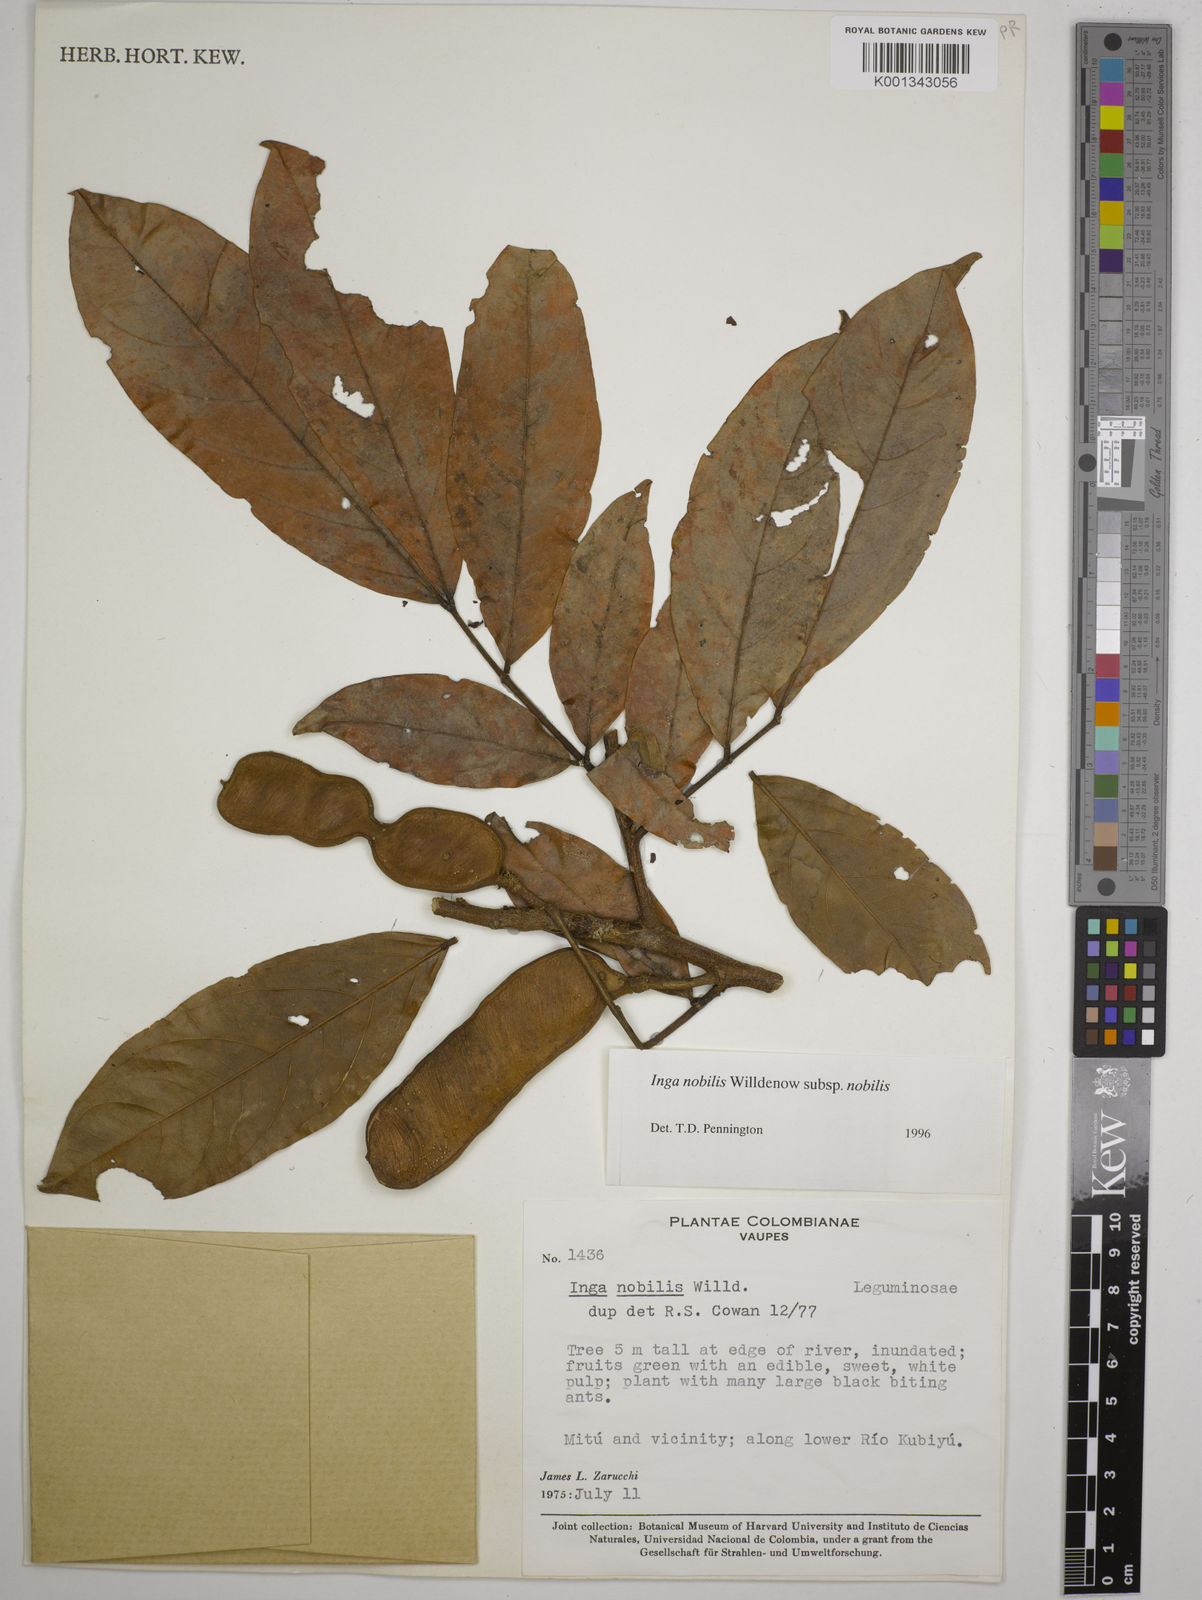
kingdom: Plantae
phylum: Tracheophyta
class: Magnoliopsida
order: Fabales
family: Fabaceae
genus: Inga
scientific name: Inga nobilis
